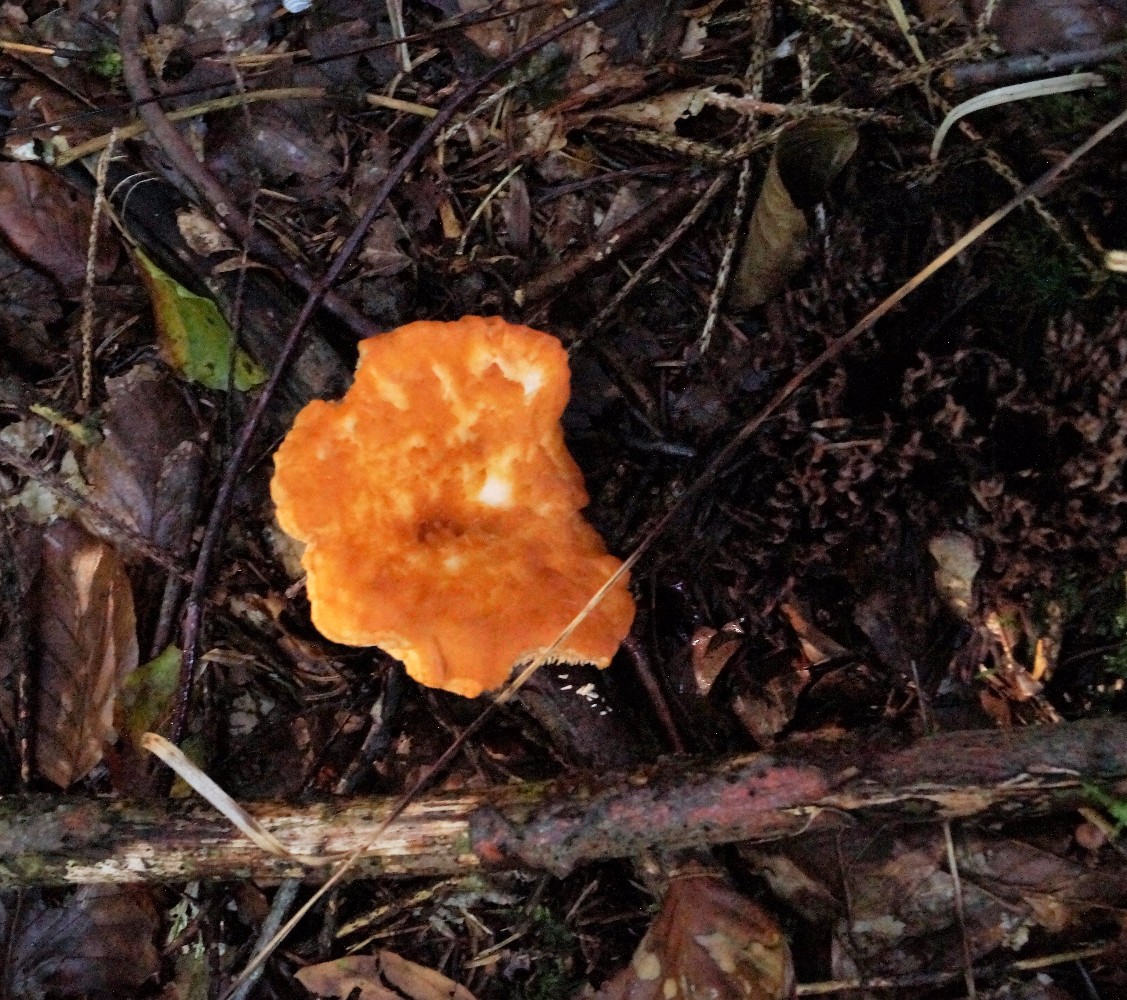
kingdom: Fungi
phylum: Basidiomycota
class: Agaricomycetes
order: Cantharellales
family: Hydnaceae
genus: Hydnum
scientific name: Hydnum
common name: pigsvamp
